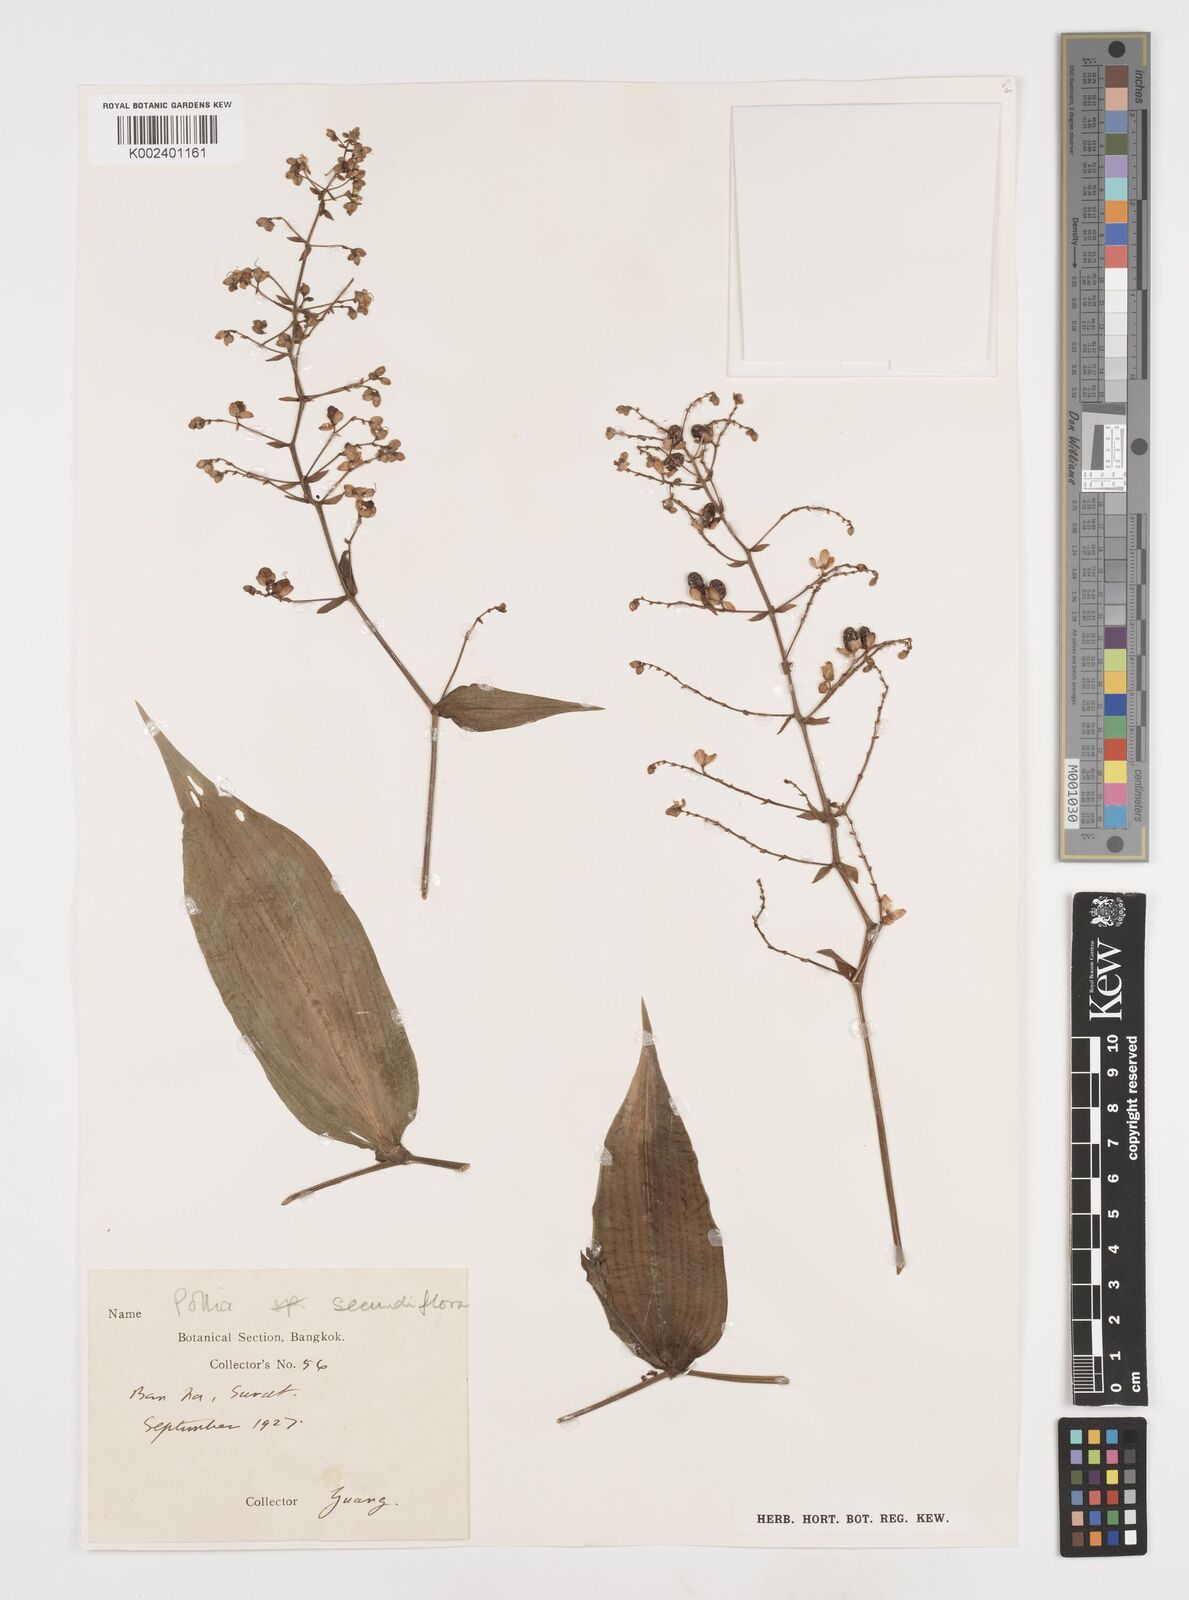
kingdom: Plantae
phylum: Tracheophyta
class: Liliopsida
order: Commelinales
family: Commelinaceae
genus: Pollia
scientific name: Pollia secundiflora
